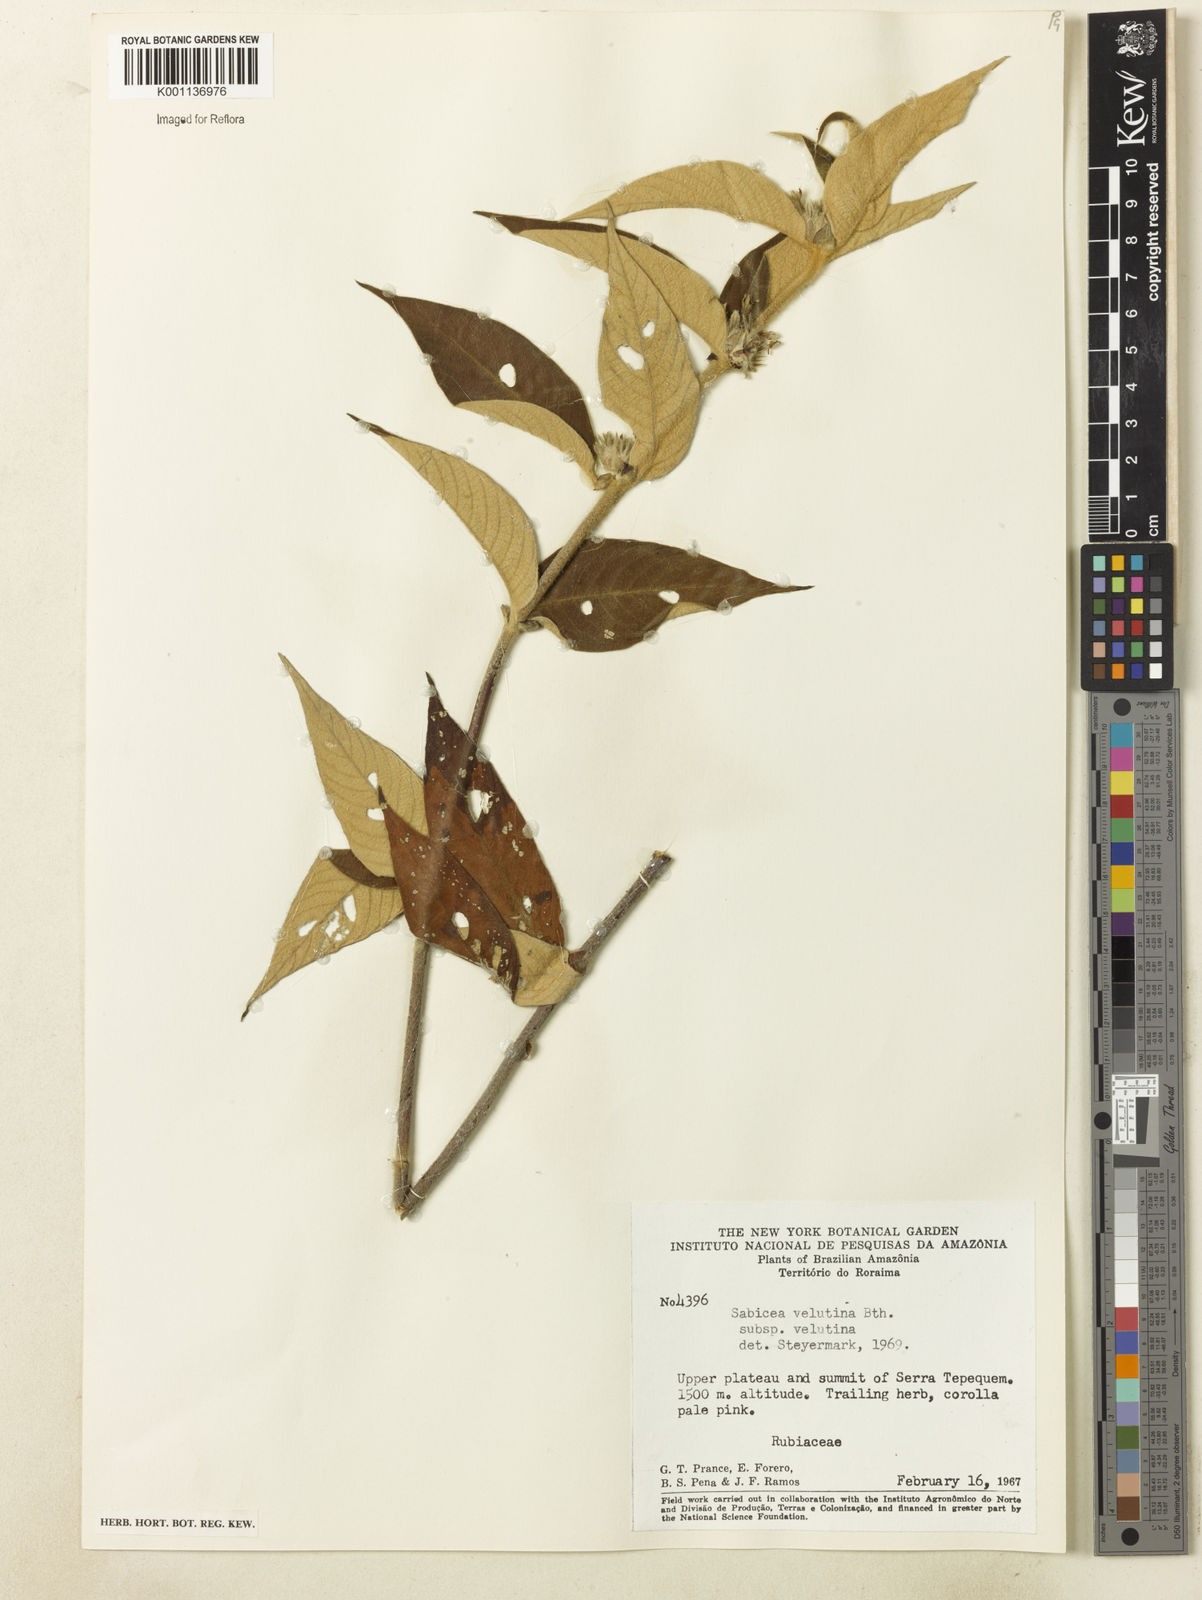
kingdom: Plantae
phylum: Tracheophyta
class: Magnoliopsida
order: Gentianales
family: Rubiaceae
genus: Sabicea
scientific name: Sabicea velutina
